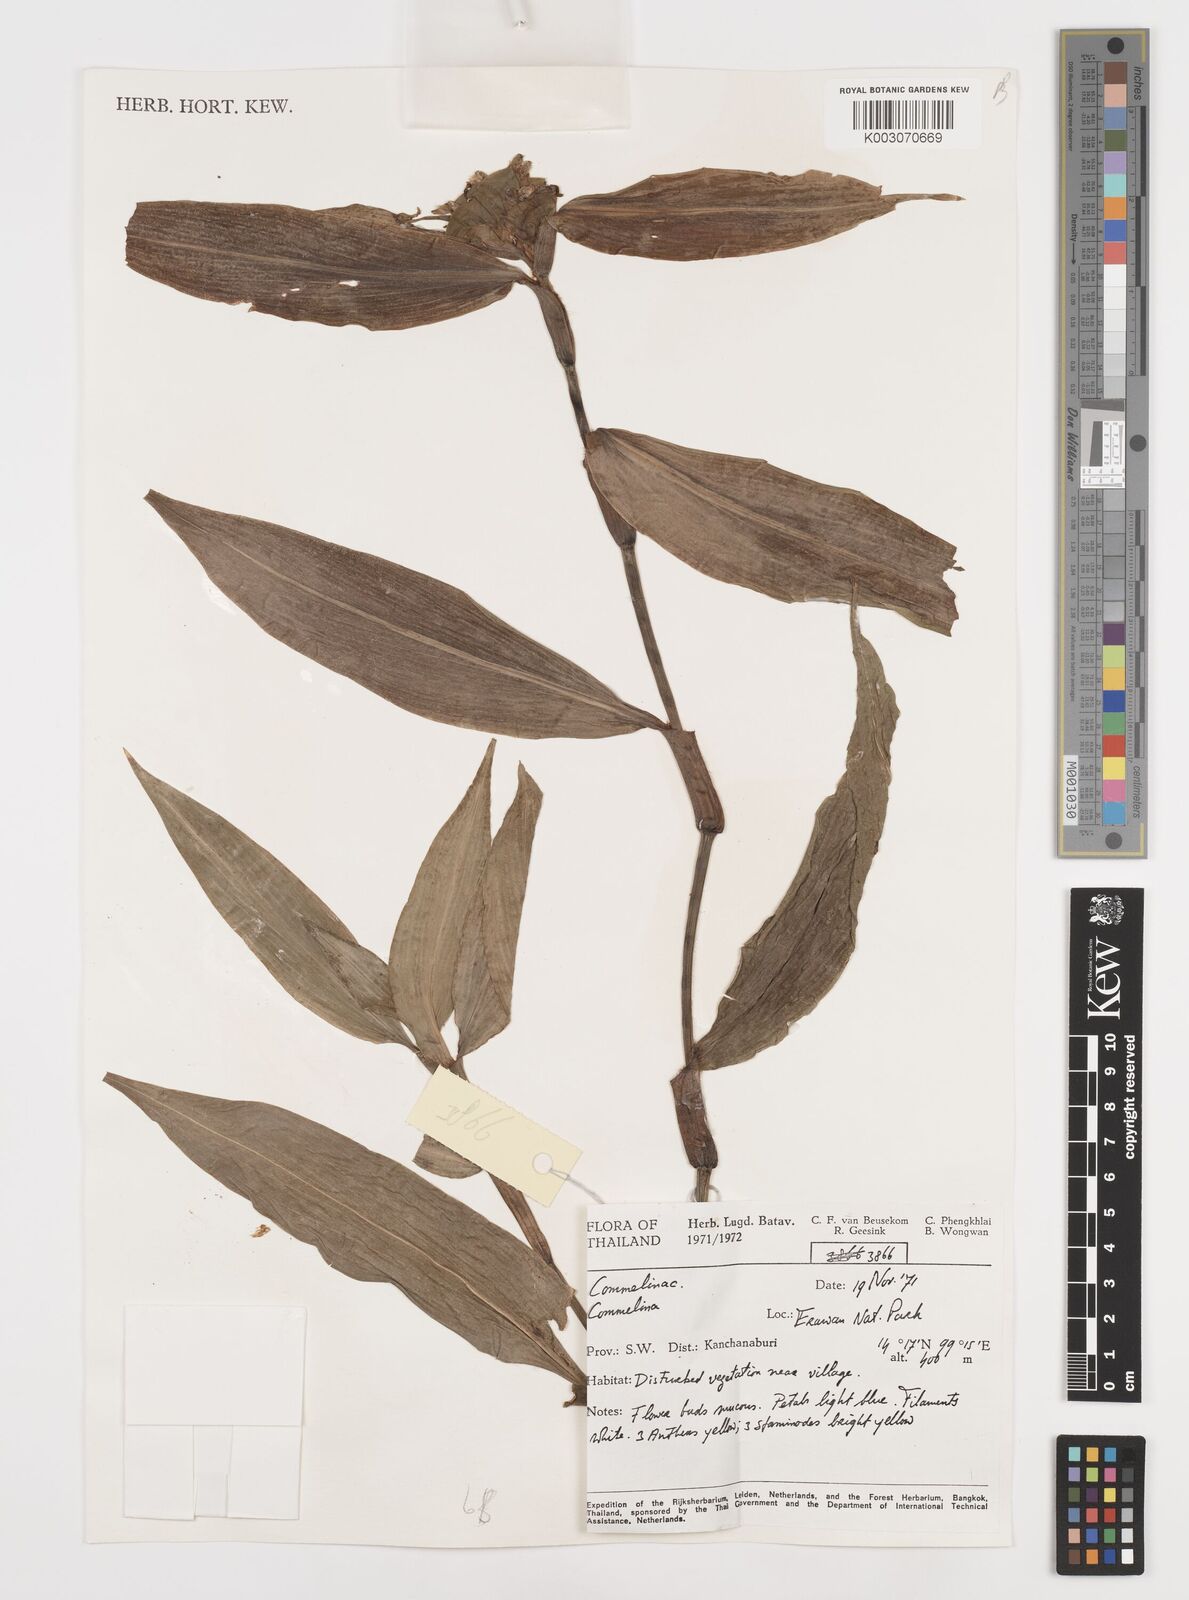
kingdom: Plantae
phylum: Tracheophyta
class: Liliopsida
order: Commelinales
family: Commelinaceae
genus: Commelina
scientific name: Commelina
